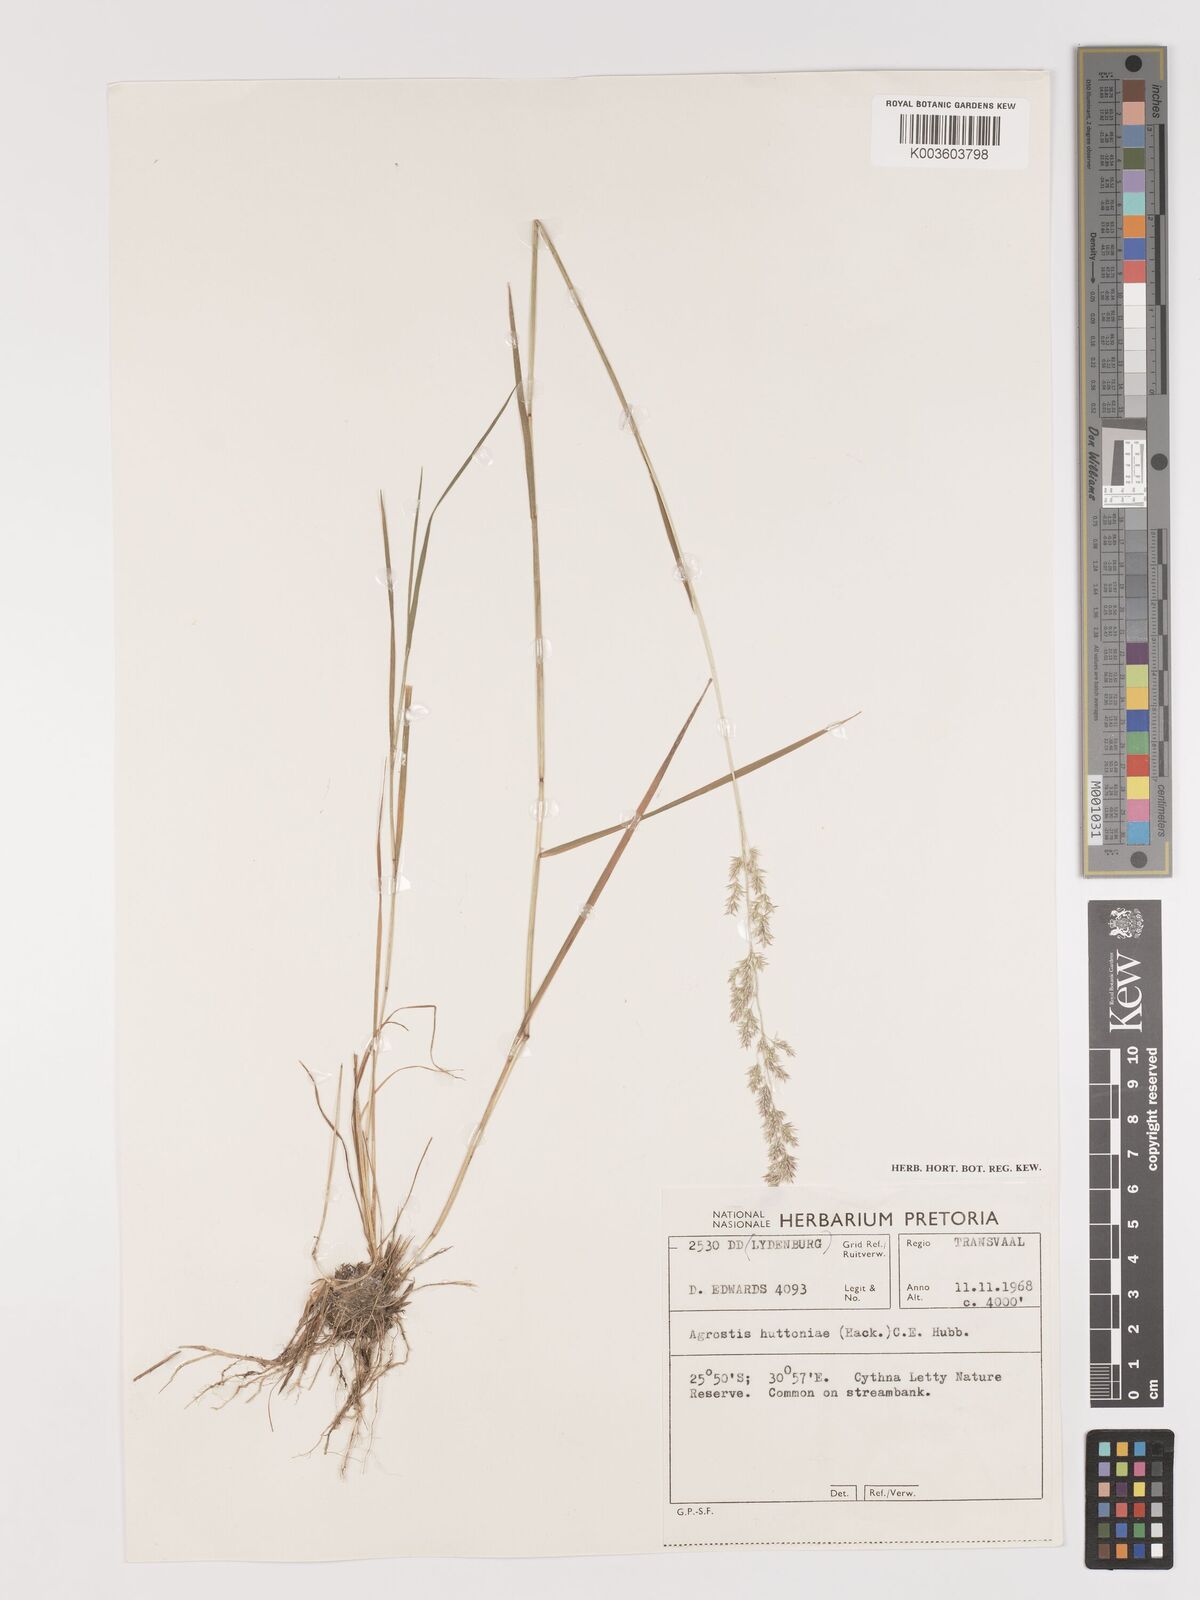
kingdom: Plantae
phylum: Tracheophyta
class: Liliopsida
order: Poales
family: Poaceae
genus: Lachnagrostis
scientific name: Lachnagrostis lachnantha
